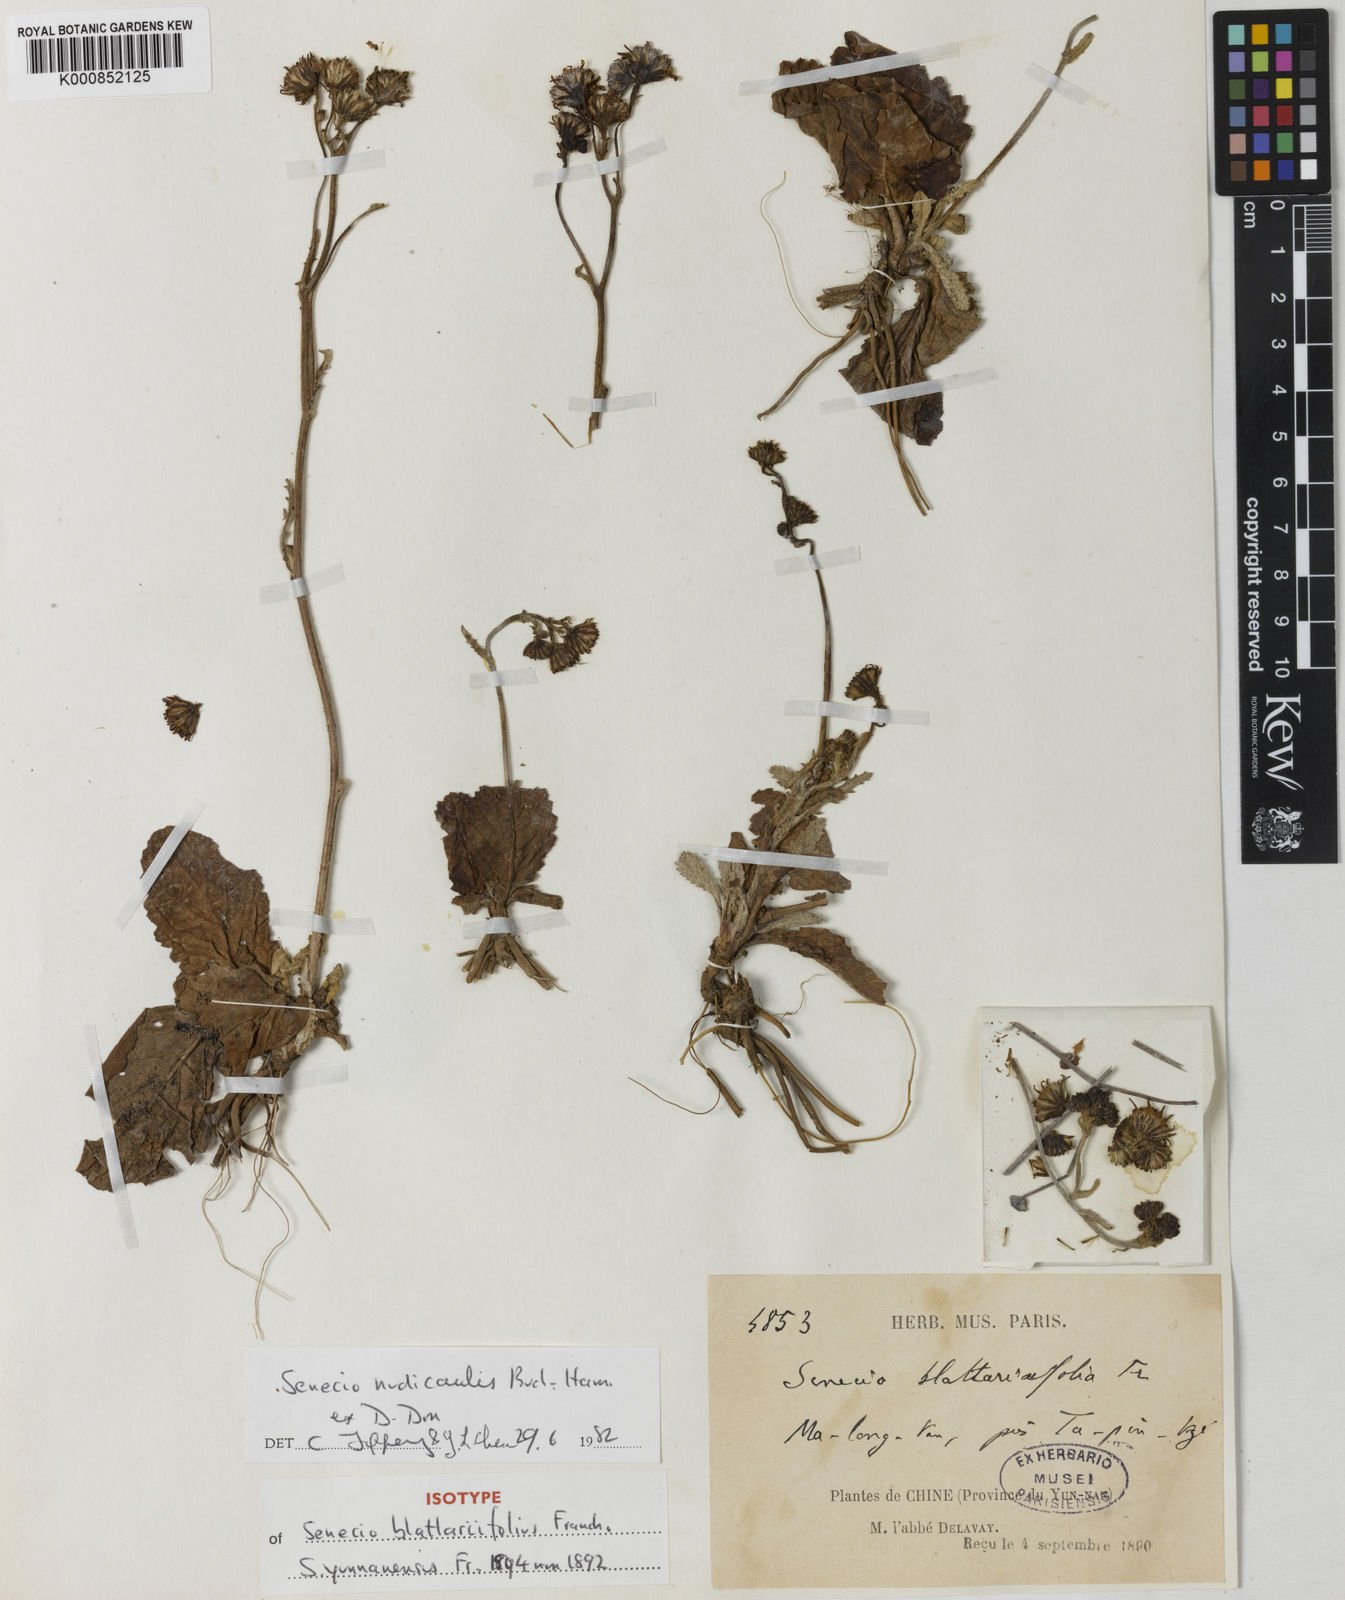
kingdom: Plantae
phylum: Tracheophyta
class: Magnoliopsida
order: Asterales
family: Asteraceae
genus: Jacobaea
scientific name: Jacobaea nudicaulis
